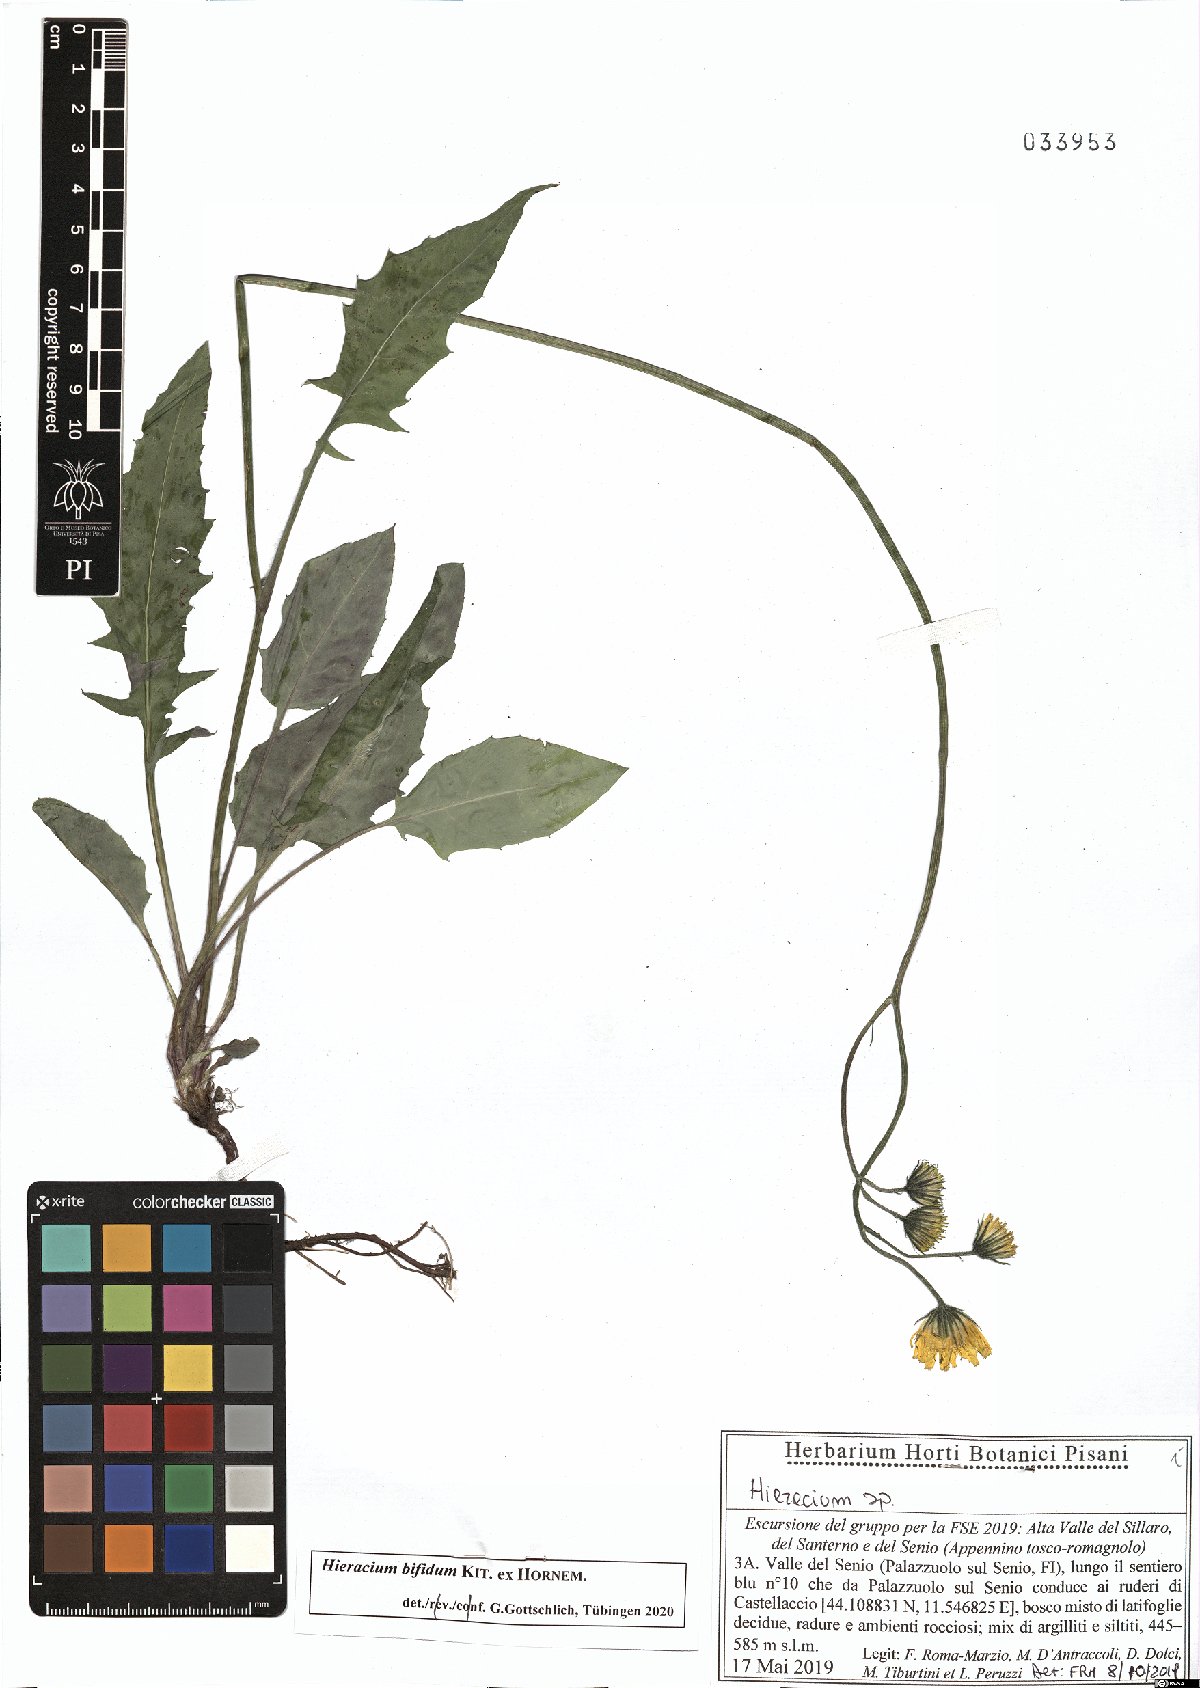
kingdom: Plantae
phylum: Tracheophyta
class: Magnoliopsida
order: Asterales
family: Asteraceae
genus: Hieracium
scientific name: Hieracium bifidum
